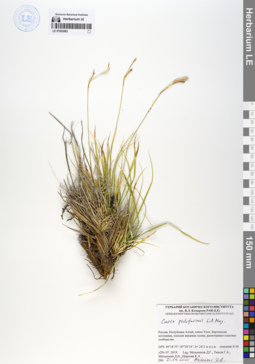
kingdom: Plantae
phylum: Tracheophyta
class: Liliopsida
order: Poales
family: Cyperaceae
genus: Carex
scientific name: Carex pediformis
